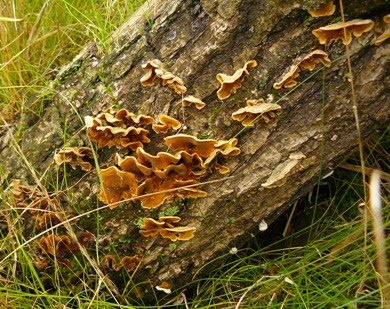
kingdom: Fungi
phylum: Basidiomycota
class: Agaricomycetes
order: Russulales
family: Stereaceae
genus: Stereum
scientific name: Stereum hirsutum
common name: håret lædersvamp
